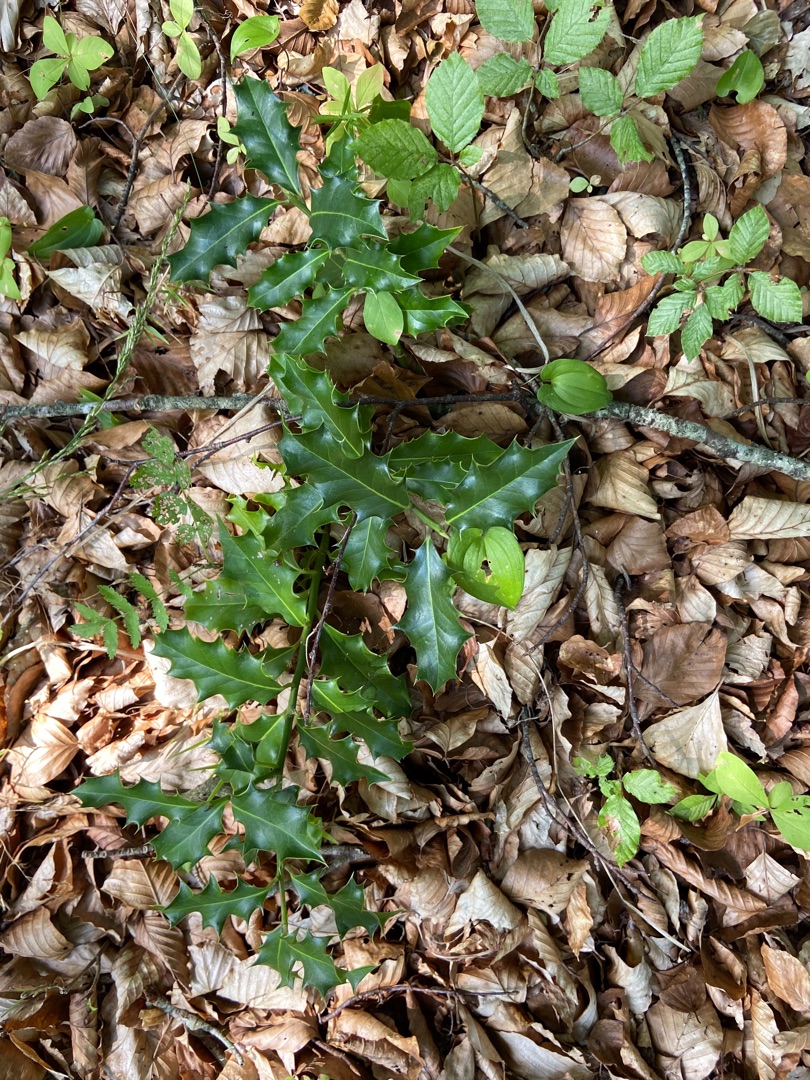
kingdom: Plantae
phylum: Tracheophyta
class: Magnoliopsida
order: Aquifoliales
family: Aquifoliaceae
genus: Ilex
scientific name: Ilex aquifolium
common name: Kristtorn
